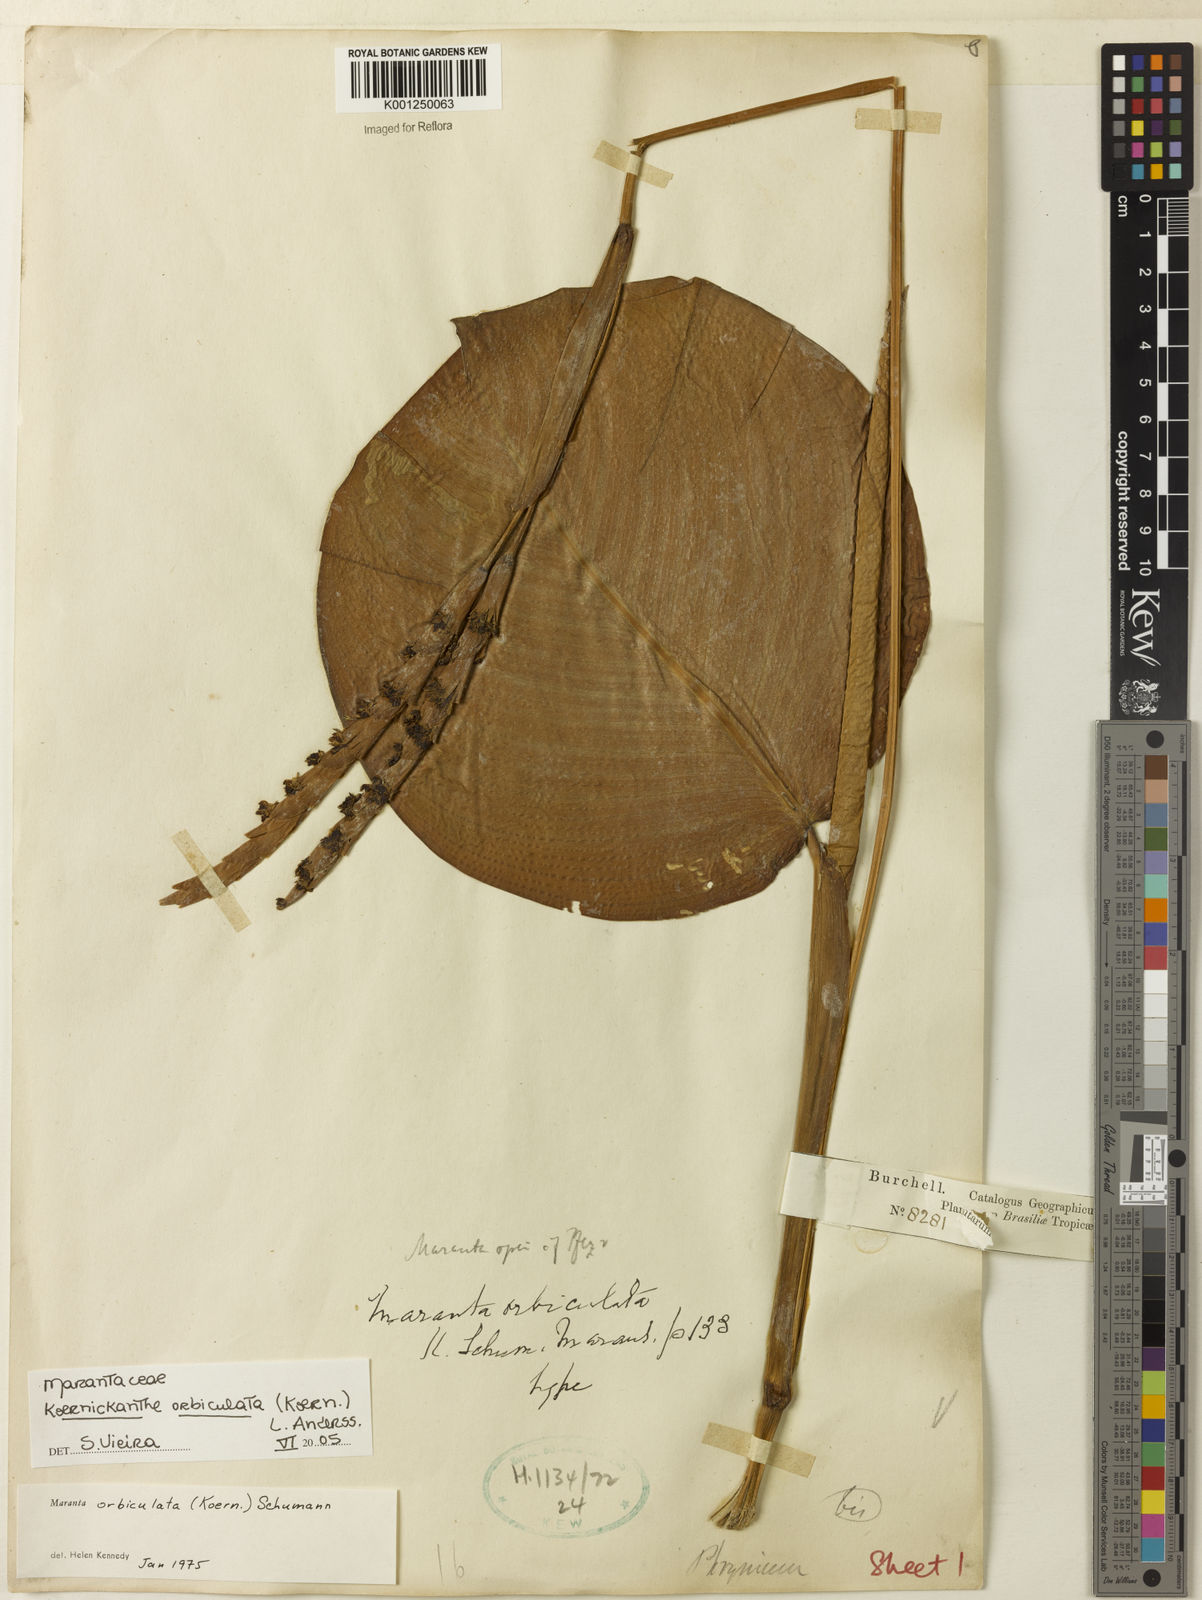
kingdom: Plantae
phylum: Tracheophyta
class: Liliopsida
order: Zingiberales
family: Marantaceae
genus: Koernickanthe
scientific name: Koernickanthe orbiculata
